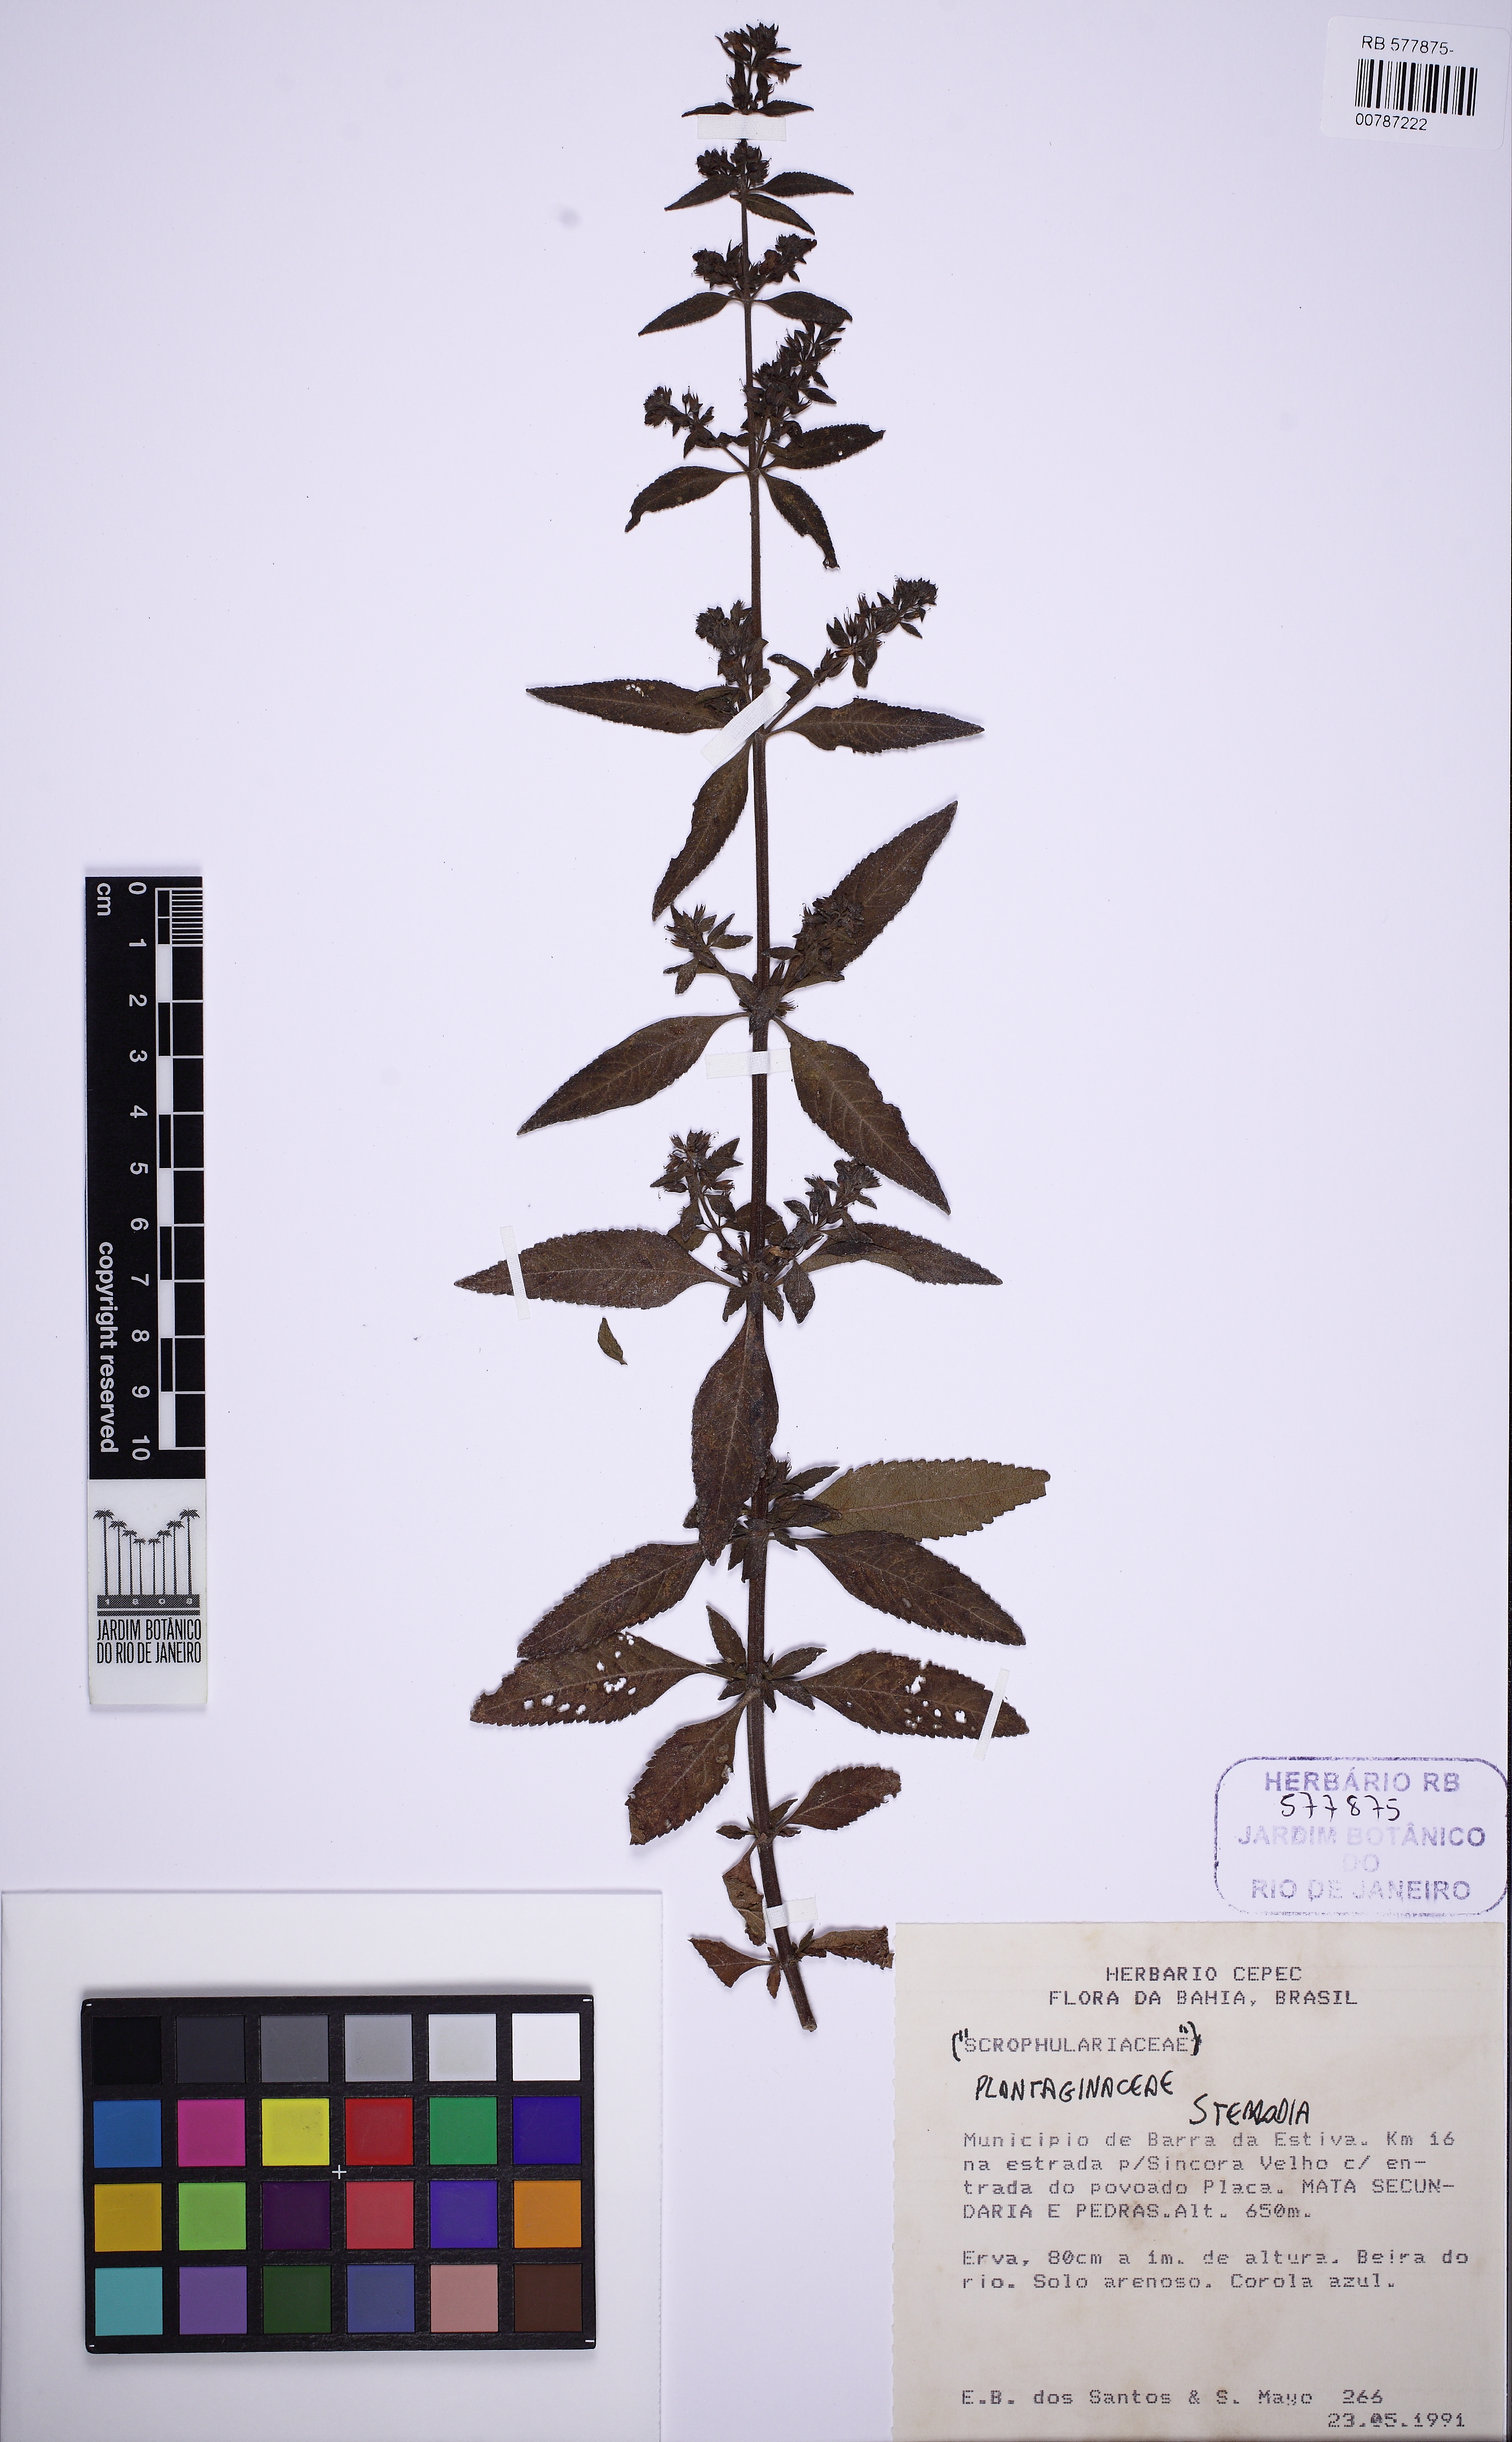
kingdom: Plantae
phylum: Tracheophyta
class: Magnoliopsida
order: Lamiales
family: Plantaginaceae
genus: Stemodia
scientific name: Stemodia foliosa
